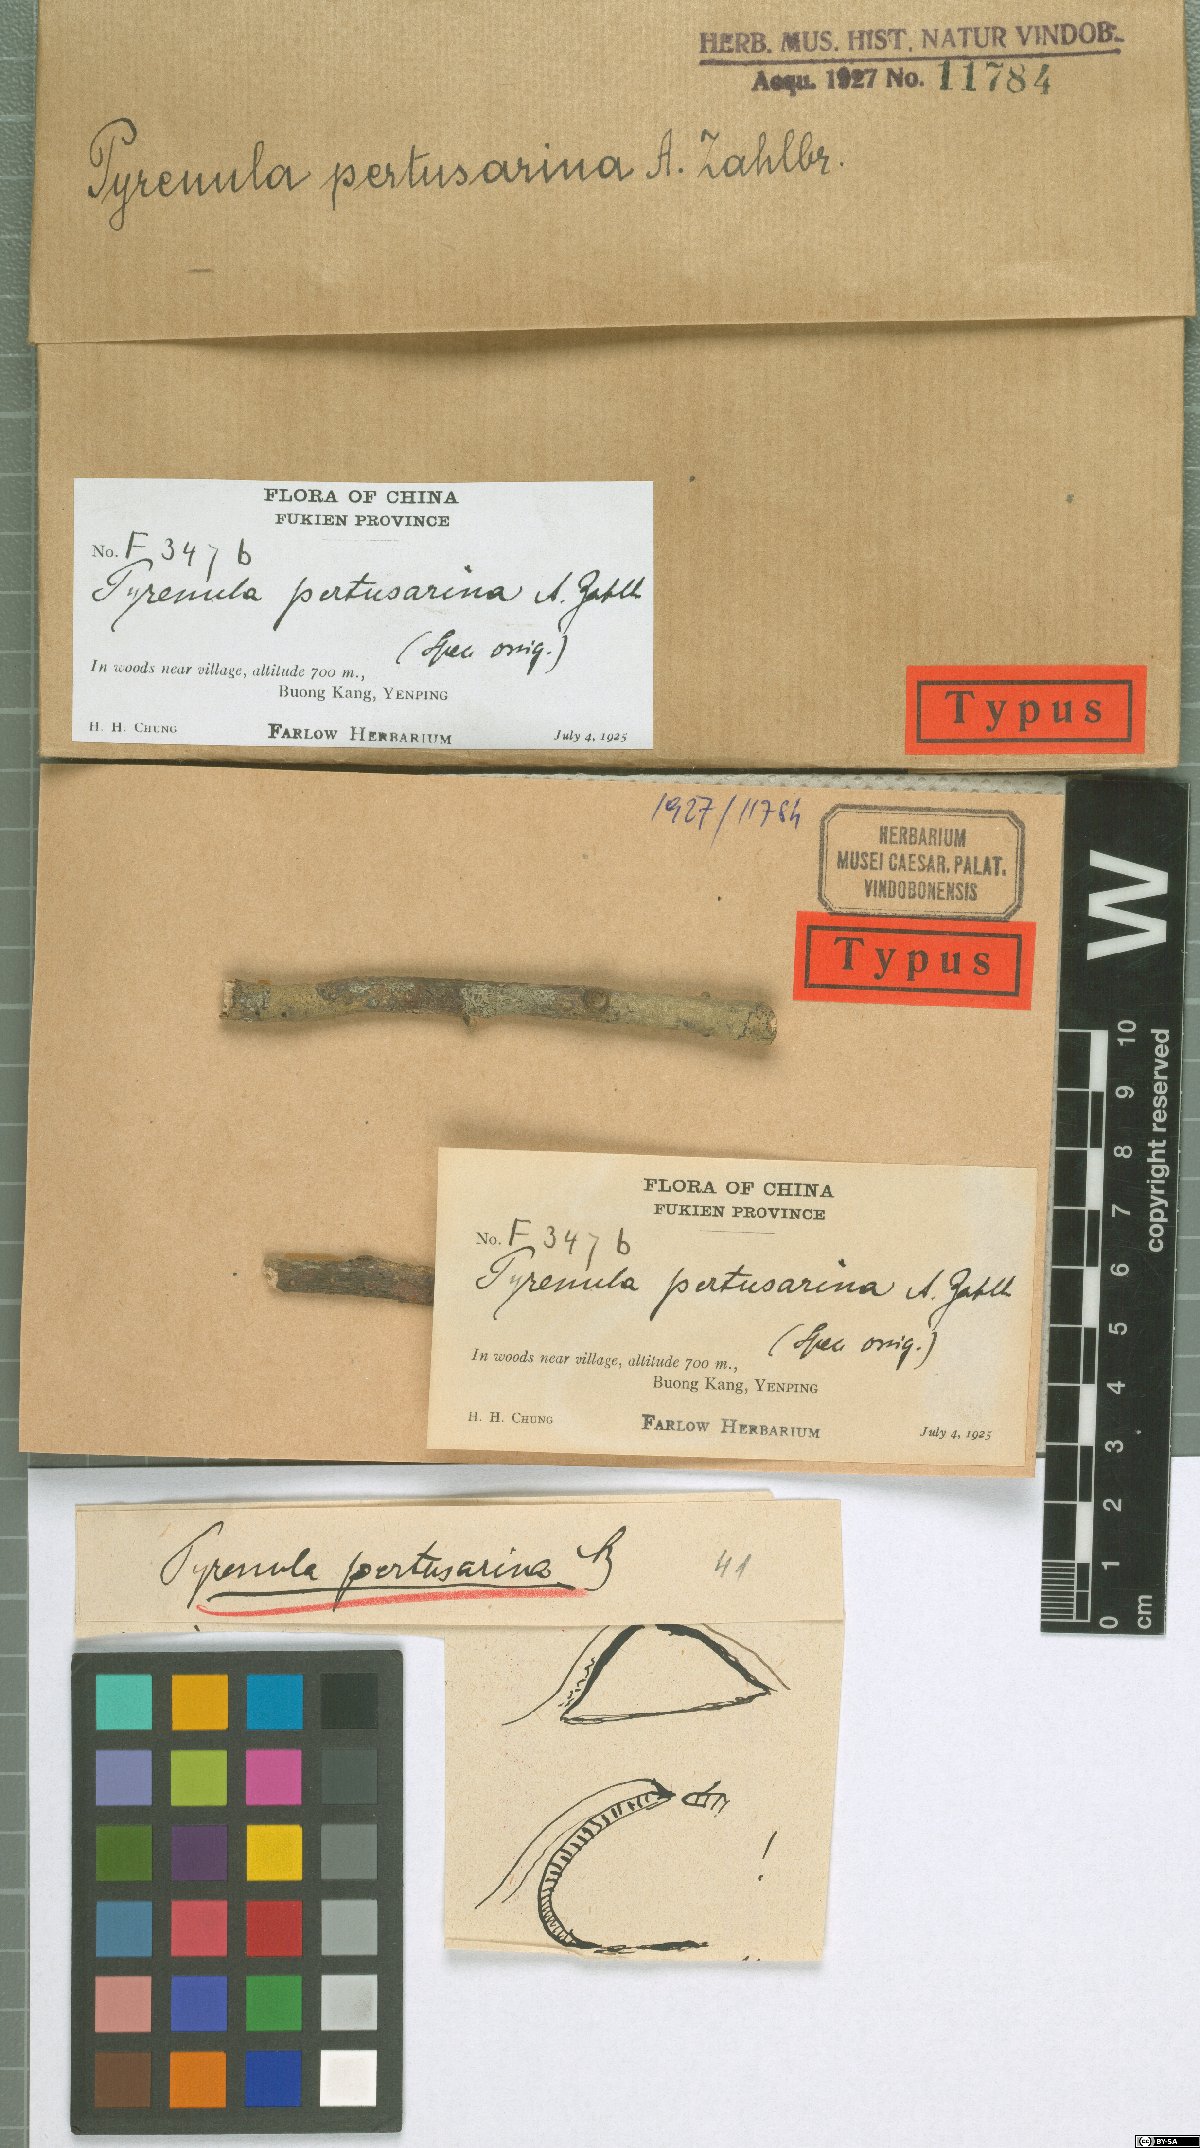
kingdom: Fungi
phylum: Ascomycota
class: Eurotiomycetes
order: Pyrenulales
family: Pyrenulaceae
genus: Pyrenula
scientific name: Pyrenula
